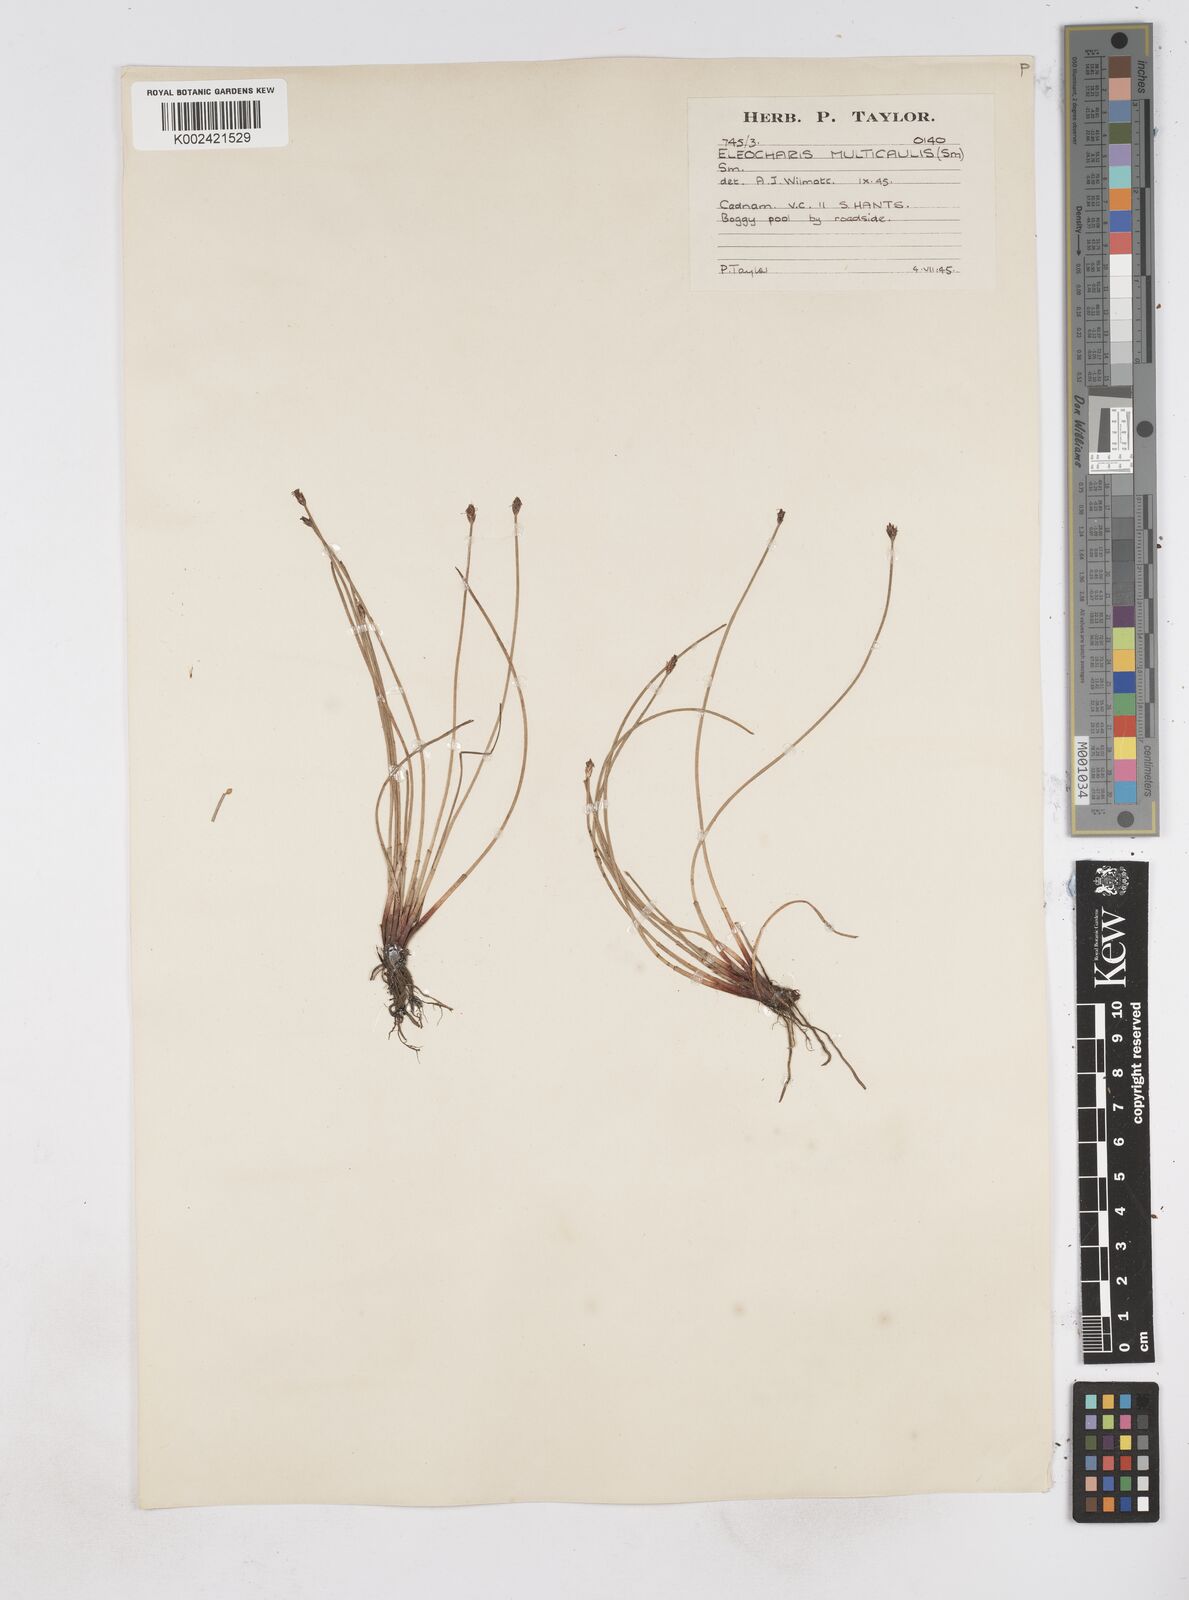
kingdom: Plantae
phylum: Tracheophyta
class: Liliopsida
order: Poales
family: Cyperaceae
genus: Eleocharis
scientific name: Eleocharis multicaulis
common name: Many-stalked spike-rush
